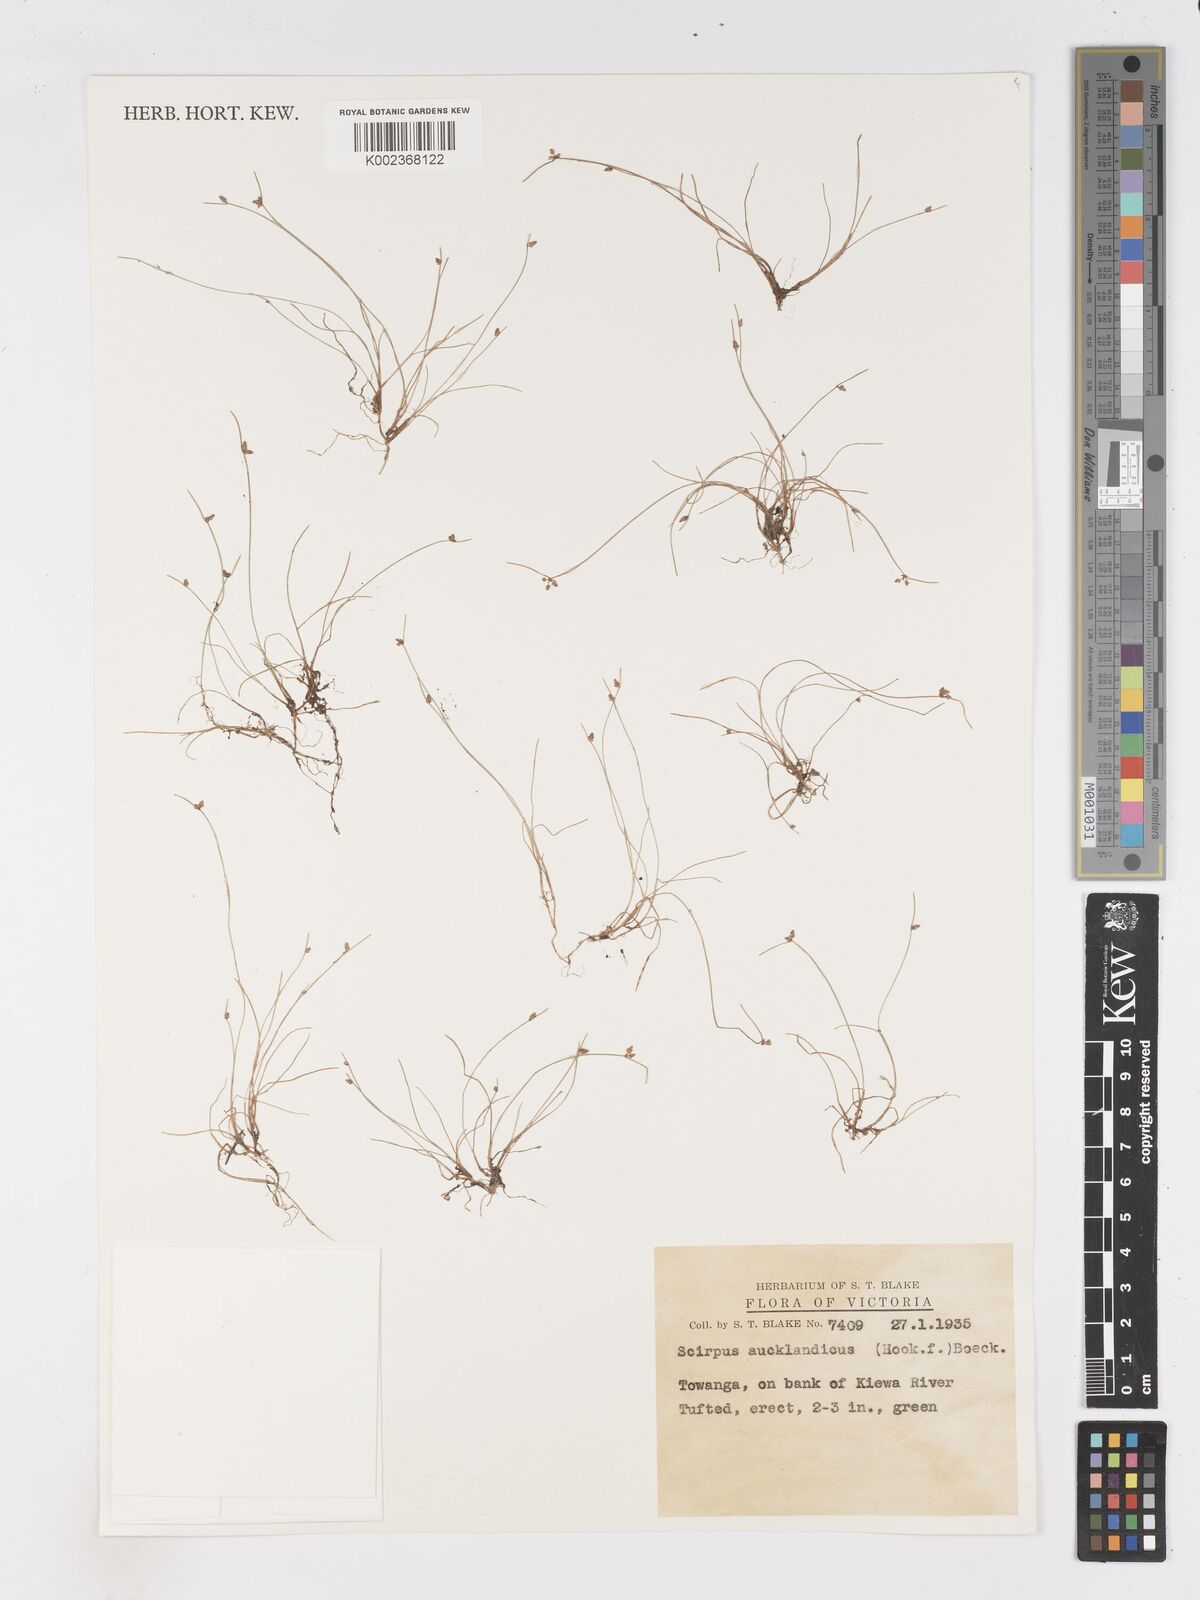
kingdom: Plantae
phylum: Tracheophyta
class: Liliopsida
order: Poales
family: Cyperaceae
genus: Isolepis
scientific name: Isolepis aucklandica
